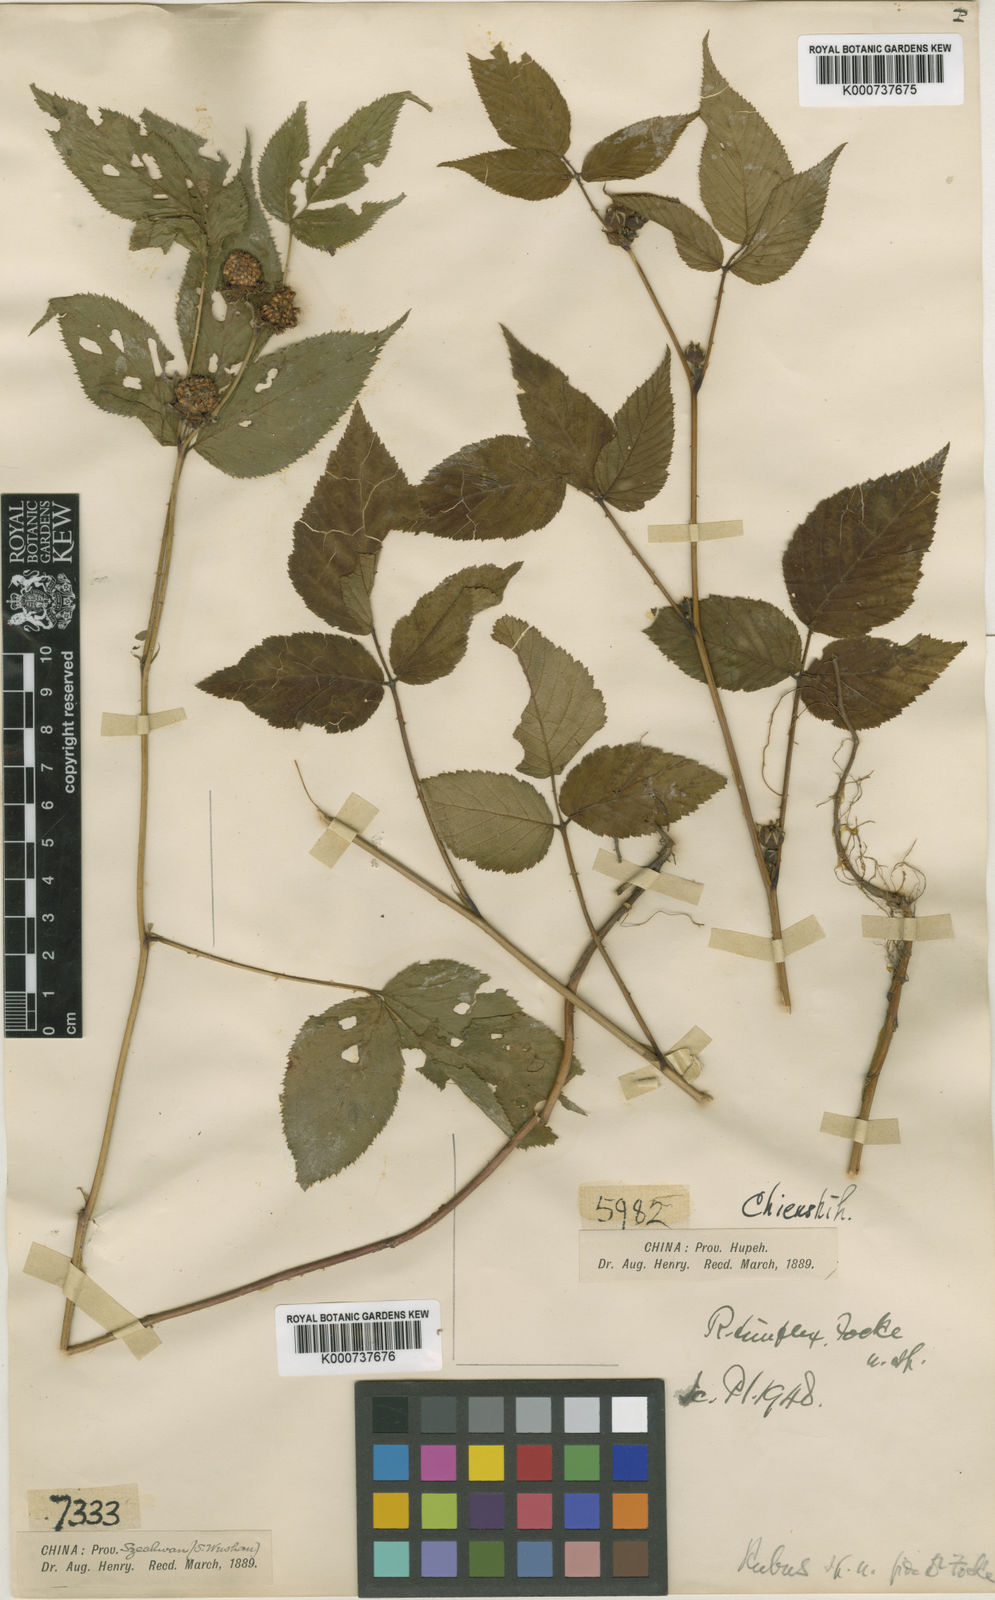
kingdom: Plantae
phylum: Tracheophyta
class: Magnoliopsida
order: Rosales
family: Rosaceae
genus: Rubus
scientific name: Rubus simplex
